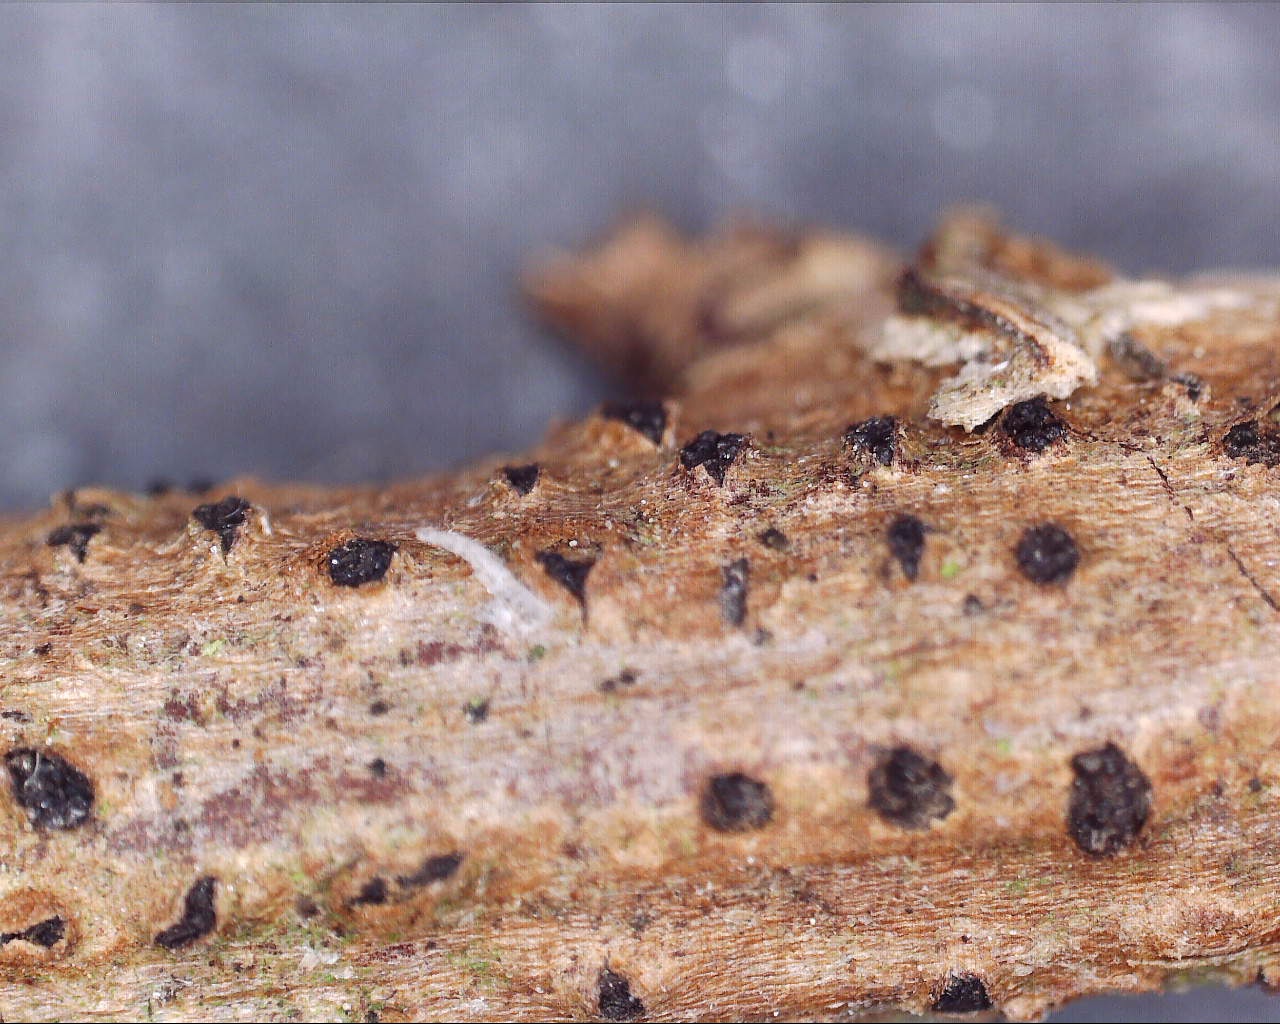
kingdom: Fungi
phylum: Ascomycota
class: Sordariomycetes
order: Diaporthales
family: Diaporthaceae
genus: Diaporthe
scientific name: Diaporthe strumella
